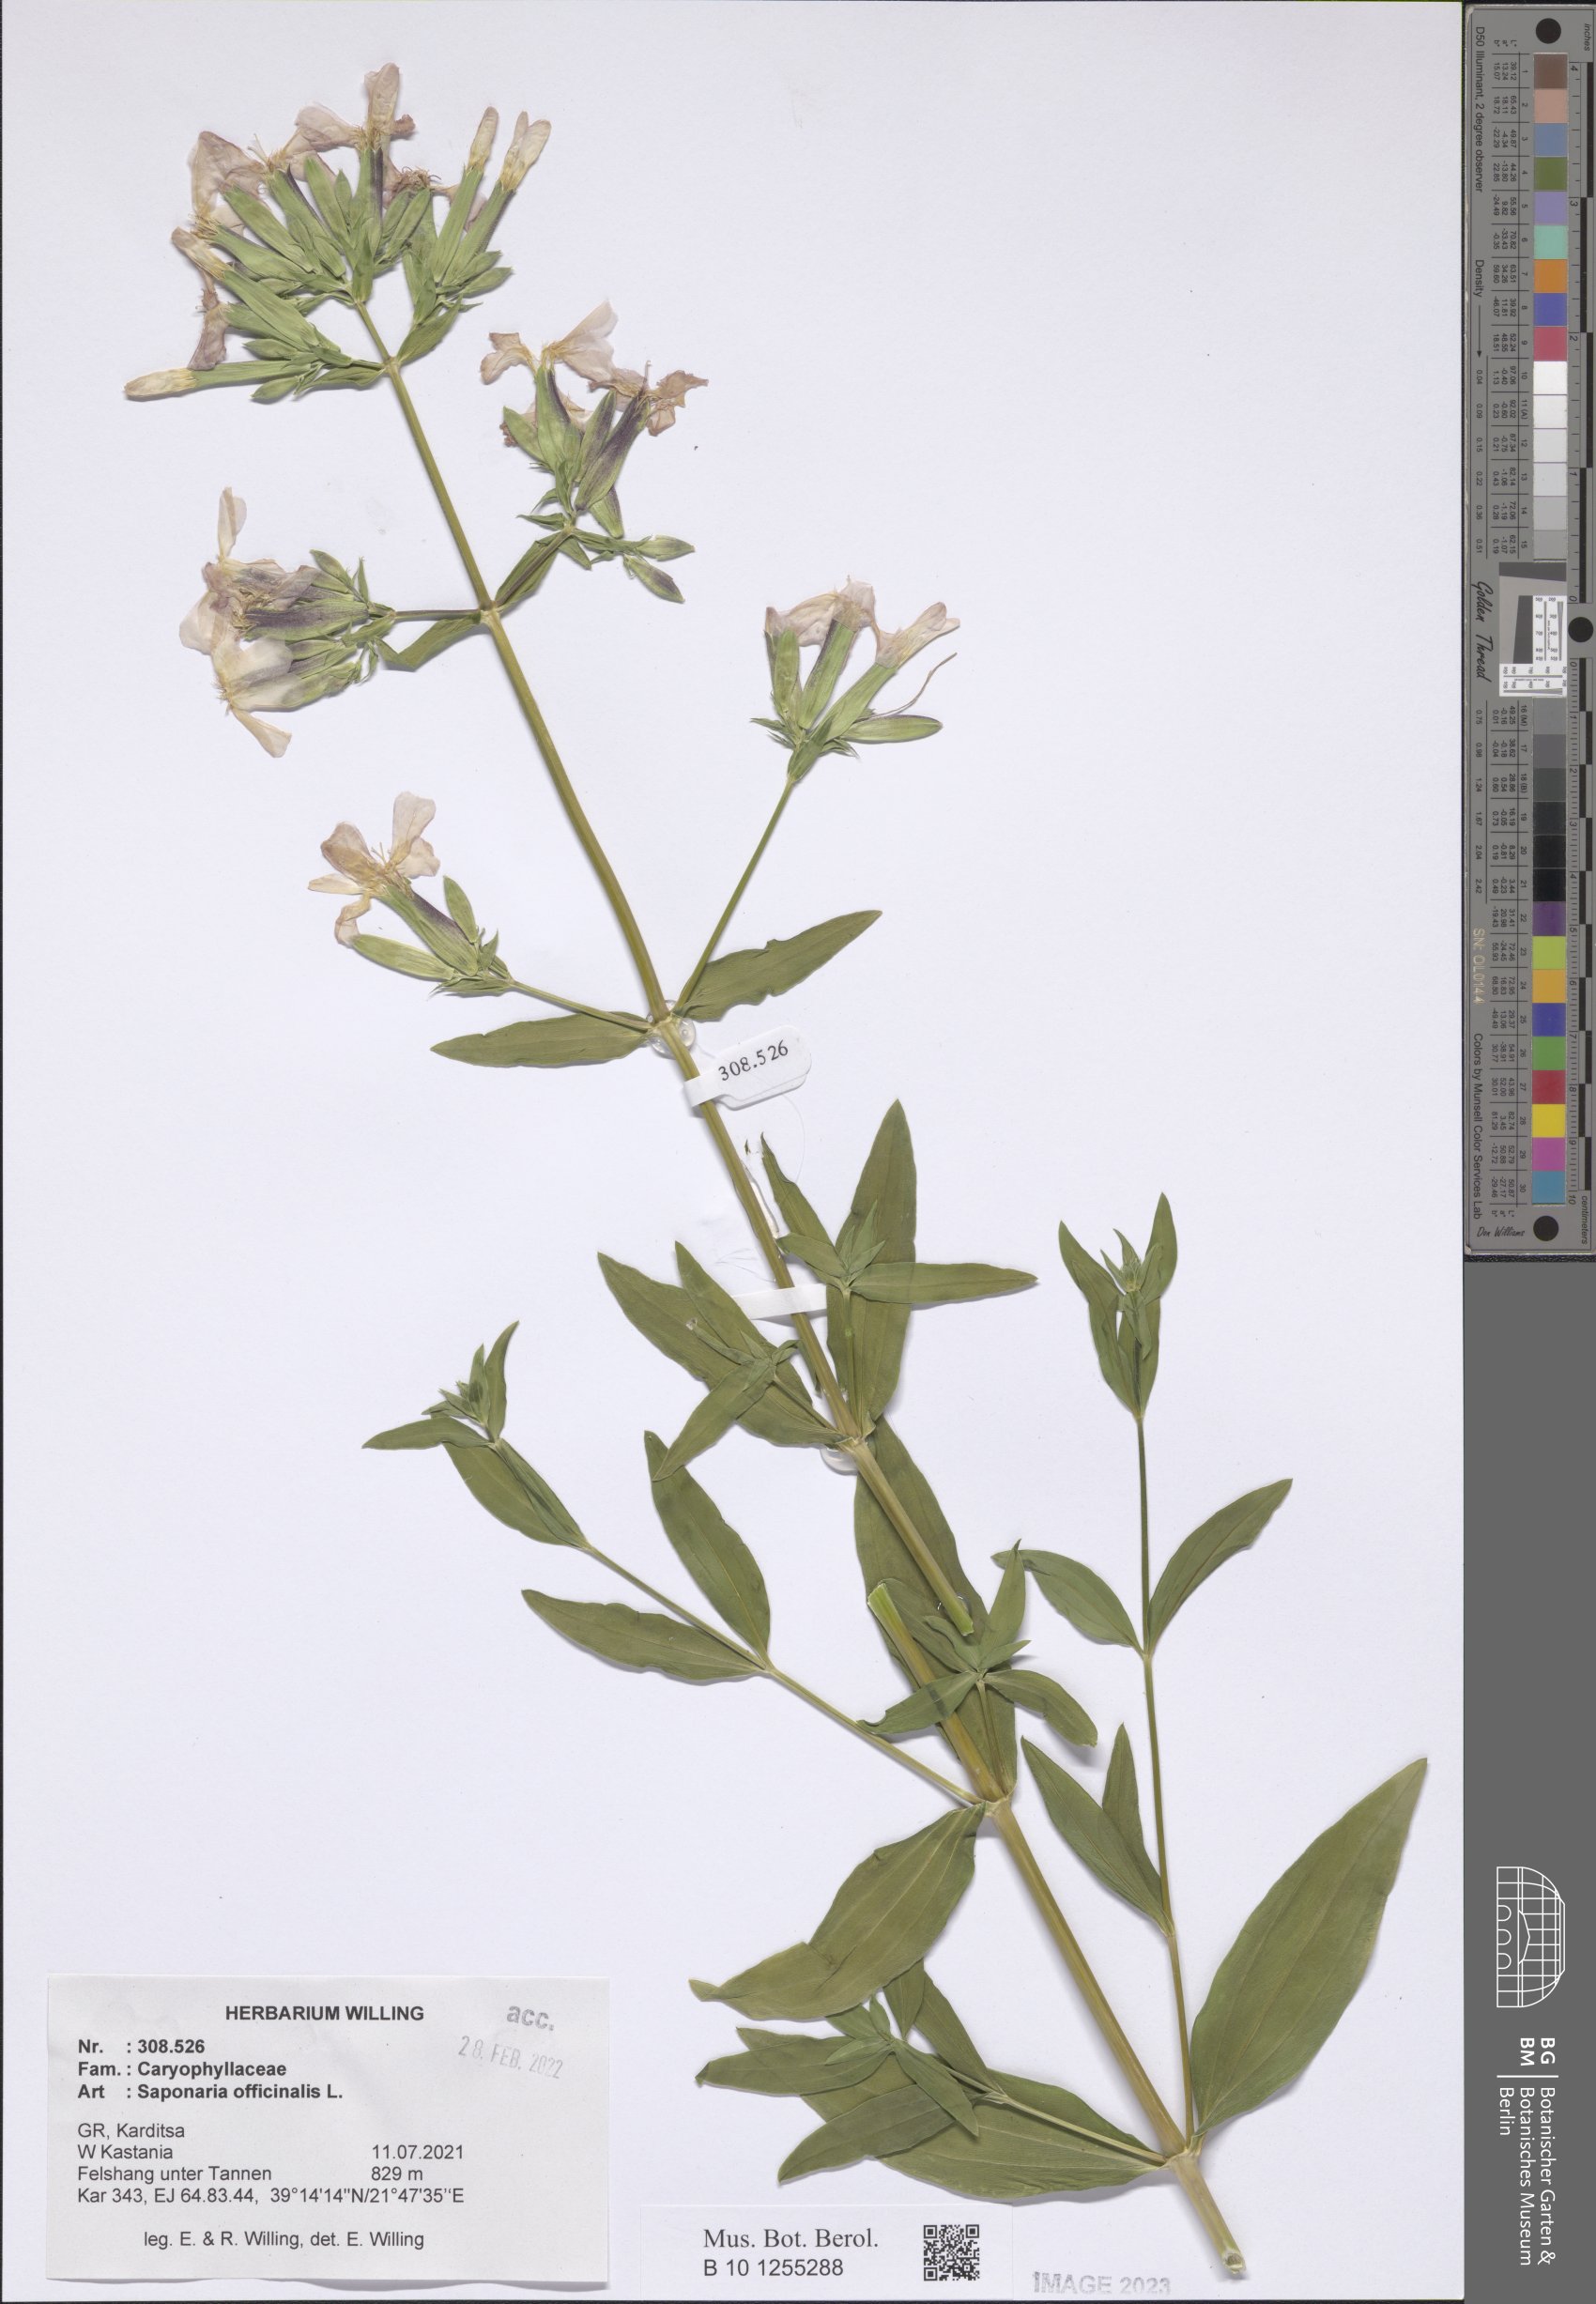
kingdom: Plantae
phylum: Tracheophyta
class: Magnoliopsida
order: Caryophyllales
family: Caryophyllaceae
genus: Saponaria
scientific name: Saponaria officinalis
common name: Soapwort
